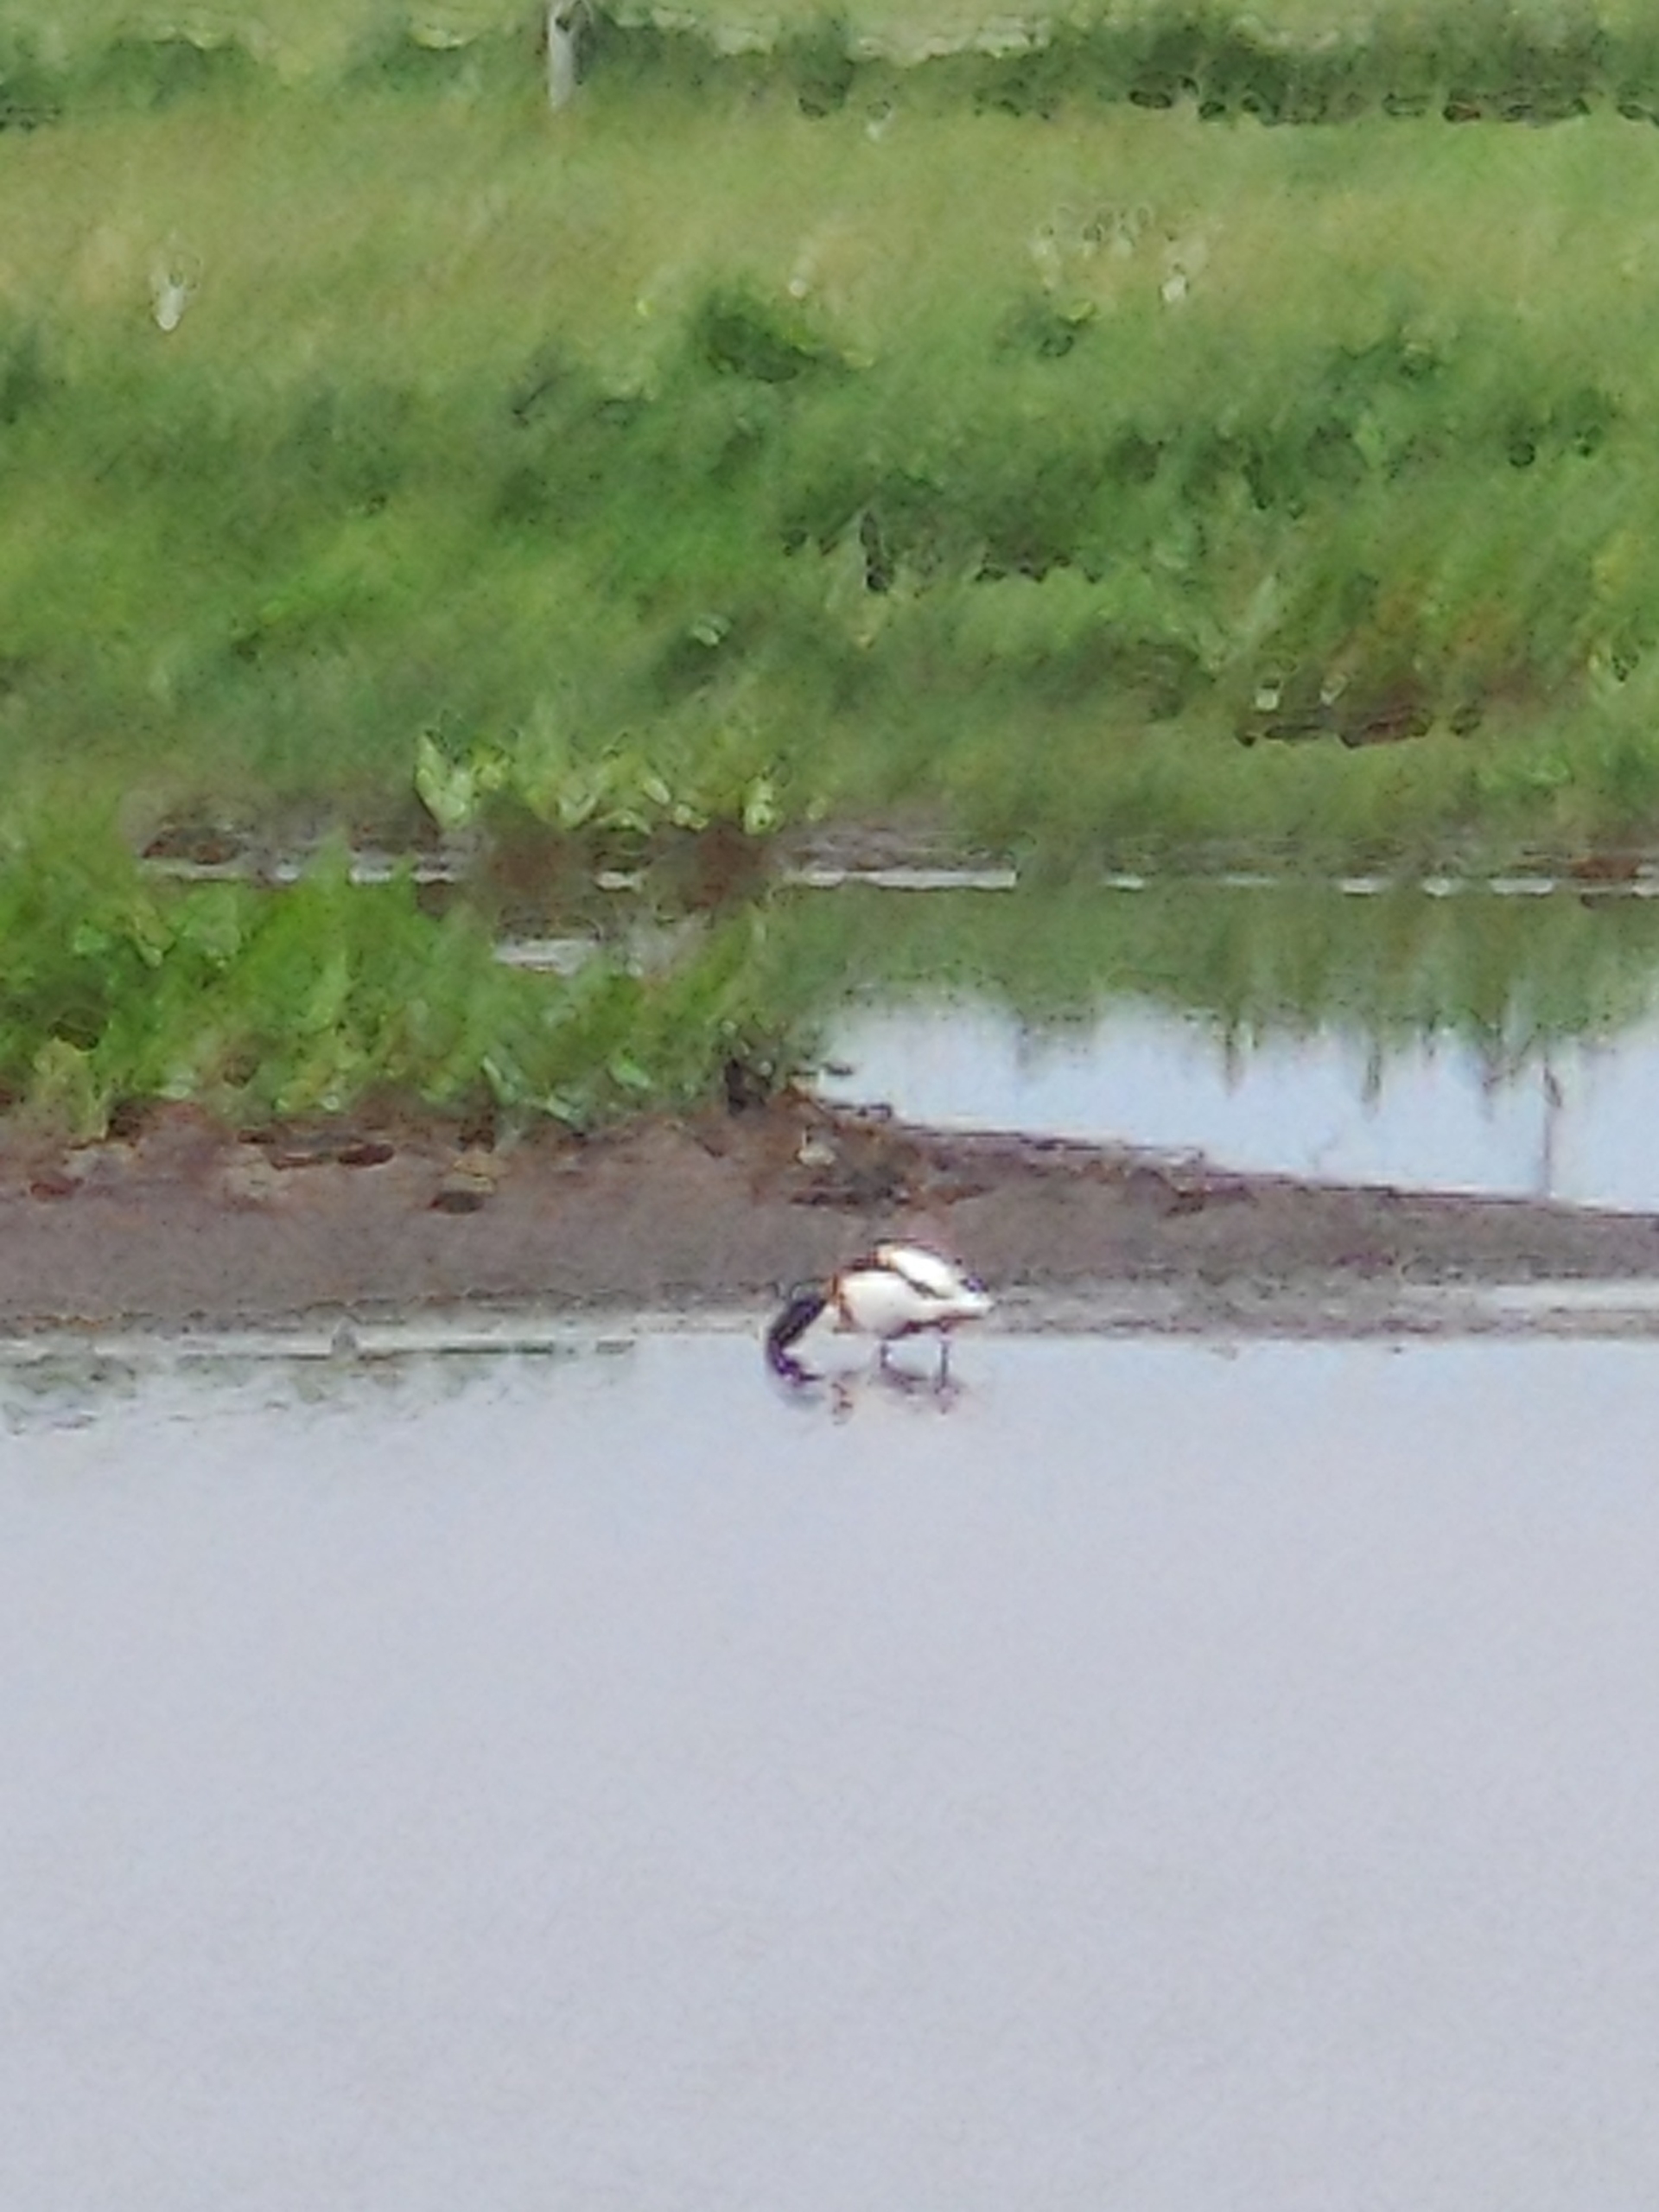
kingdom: Animalia
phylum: Chordata
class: Aves
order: Anseriformes
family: Anatidae
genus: Tadorna
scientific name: Tadorna tadorna
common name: Gravand
